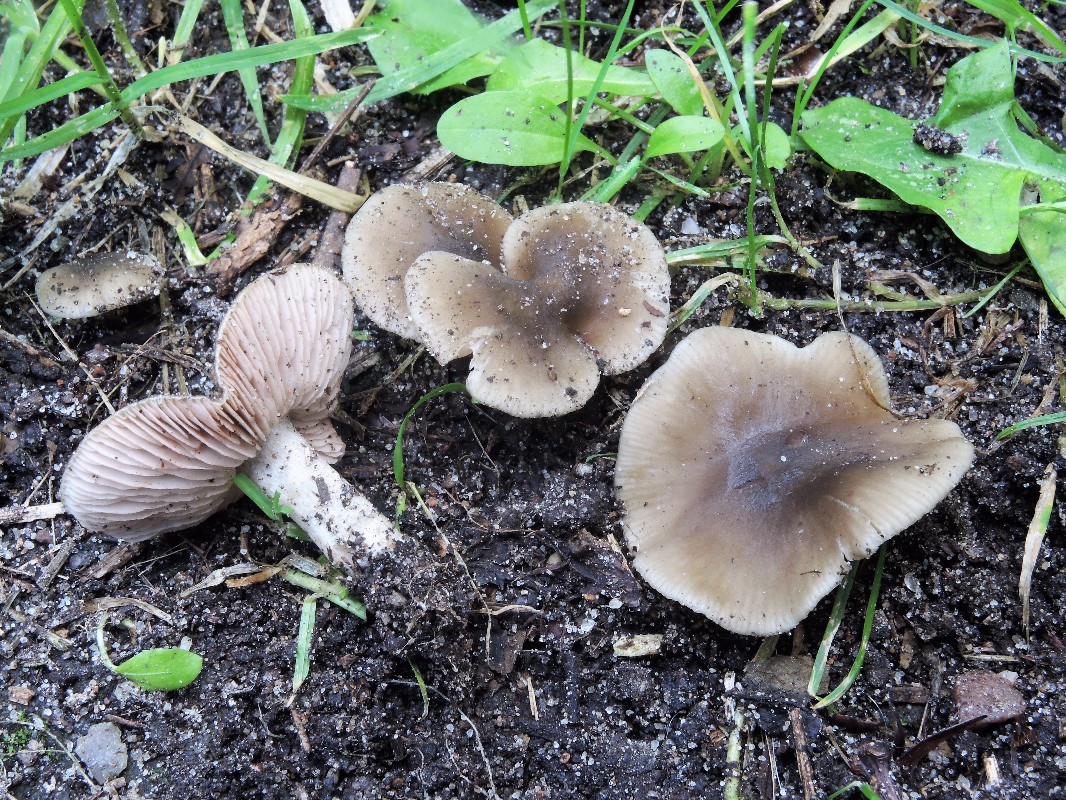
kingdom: Fungi
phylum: Basidiomycota
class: Agaricomycetes
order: Agaricales
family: Entolomataceae
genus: Entoloma
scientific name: Entoloma sordidulum
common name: smudsig rødblad
